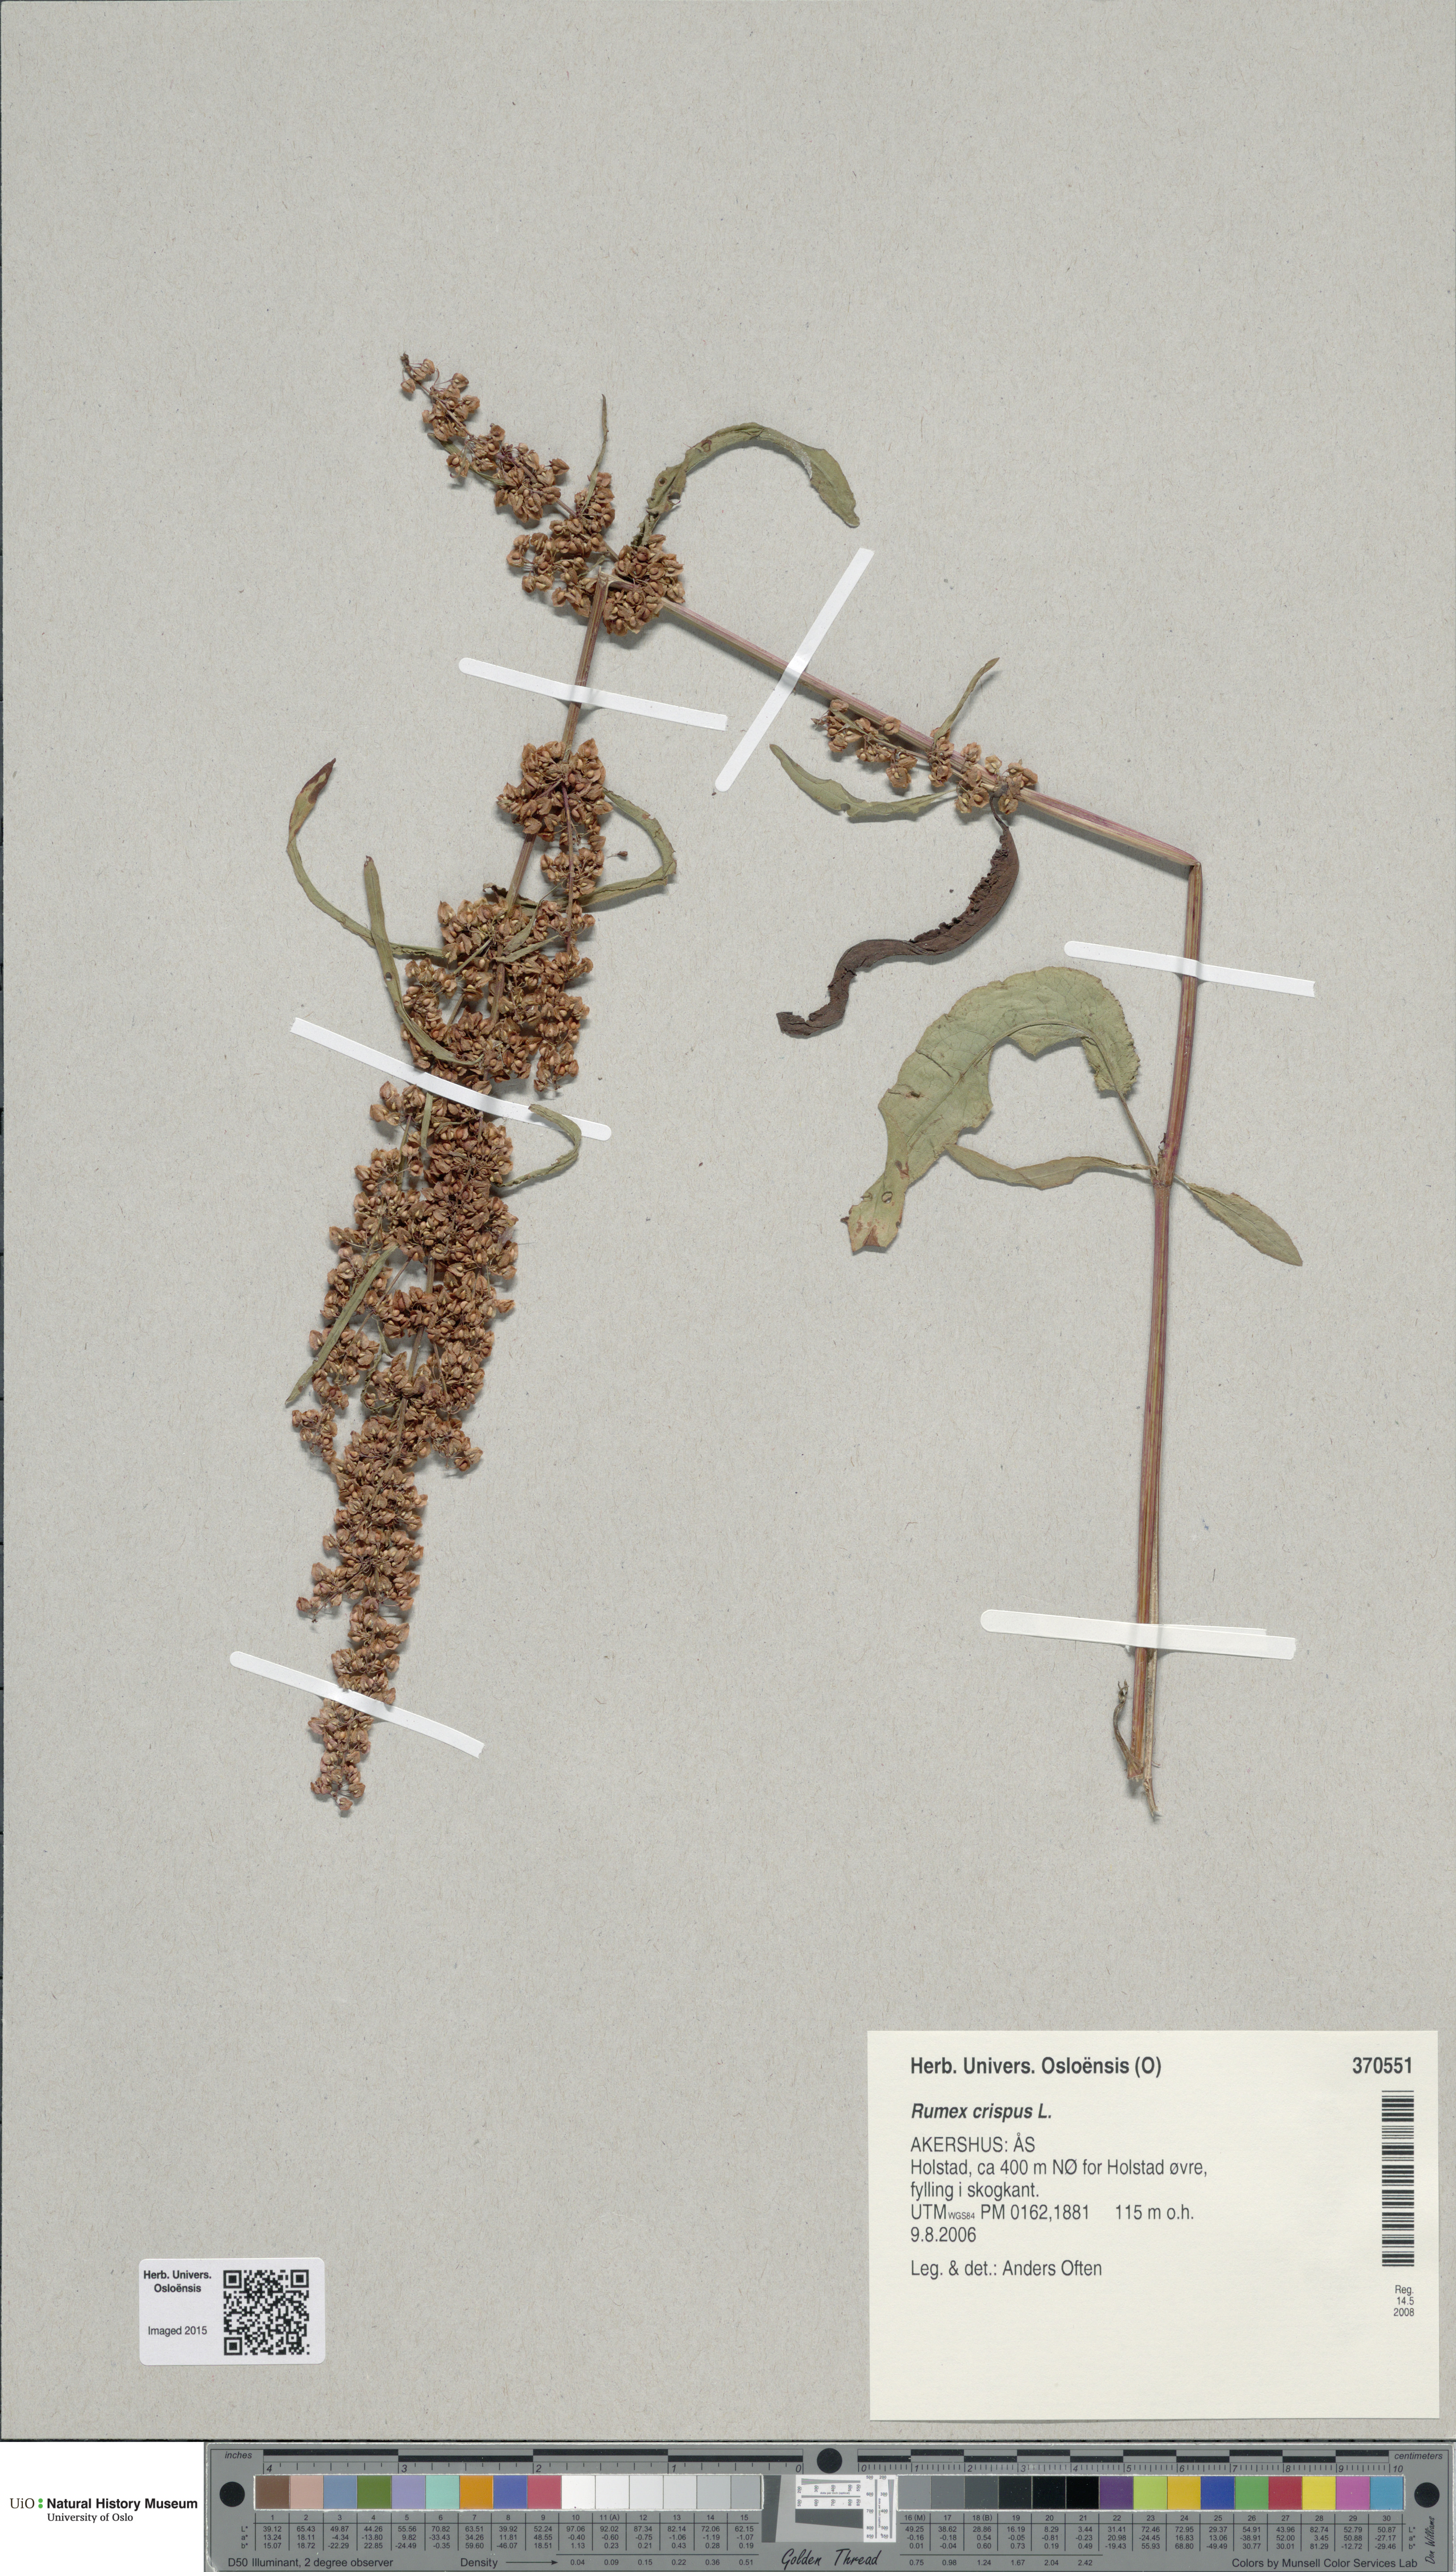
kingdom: Plantae
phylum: Tracheophyta
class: Magnoliopsida
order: Caryophyllales
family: Polygonaceae
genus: Rumex
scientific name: Rumex crispus
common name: Curled dock
